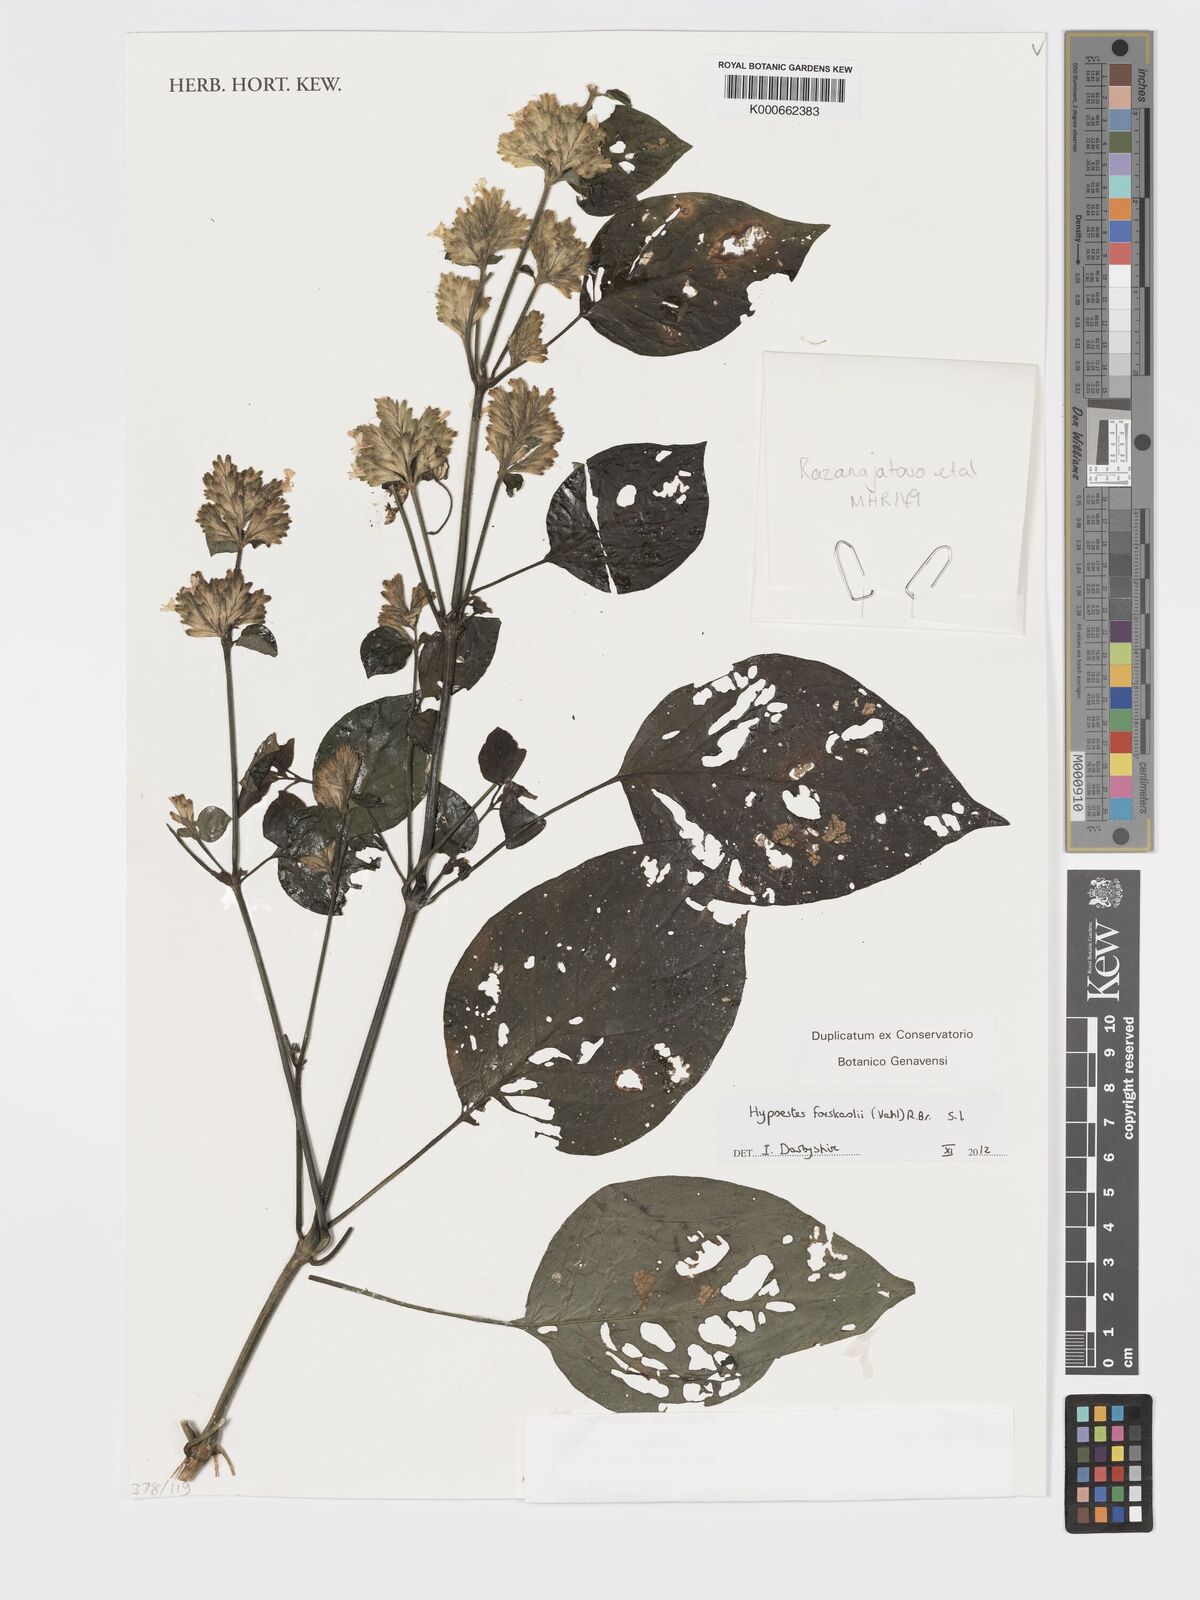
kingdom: Plantae
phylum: Tracheophyta
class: Magnoliopsida
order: Lamiales
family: Acanthaceae
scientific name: Acanthaceae
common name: Acanthaceae
